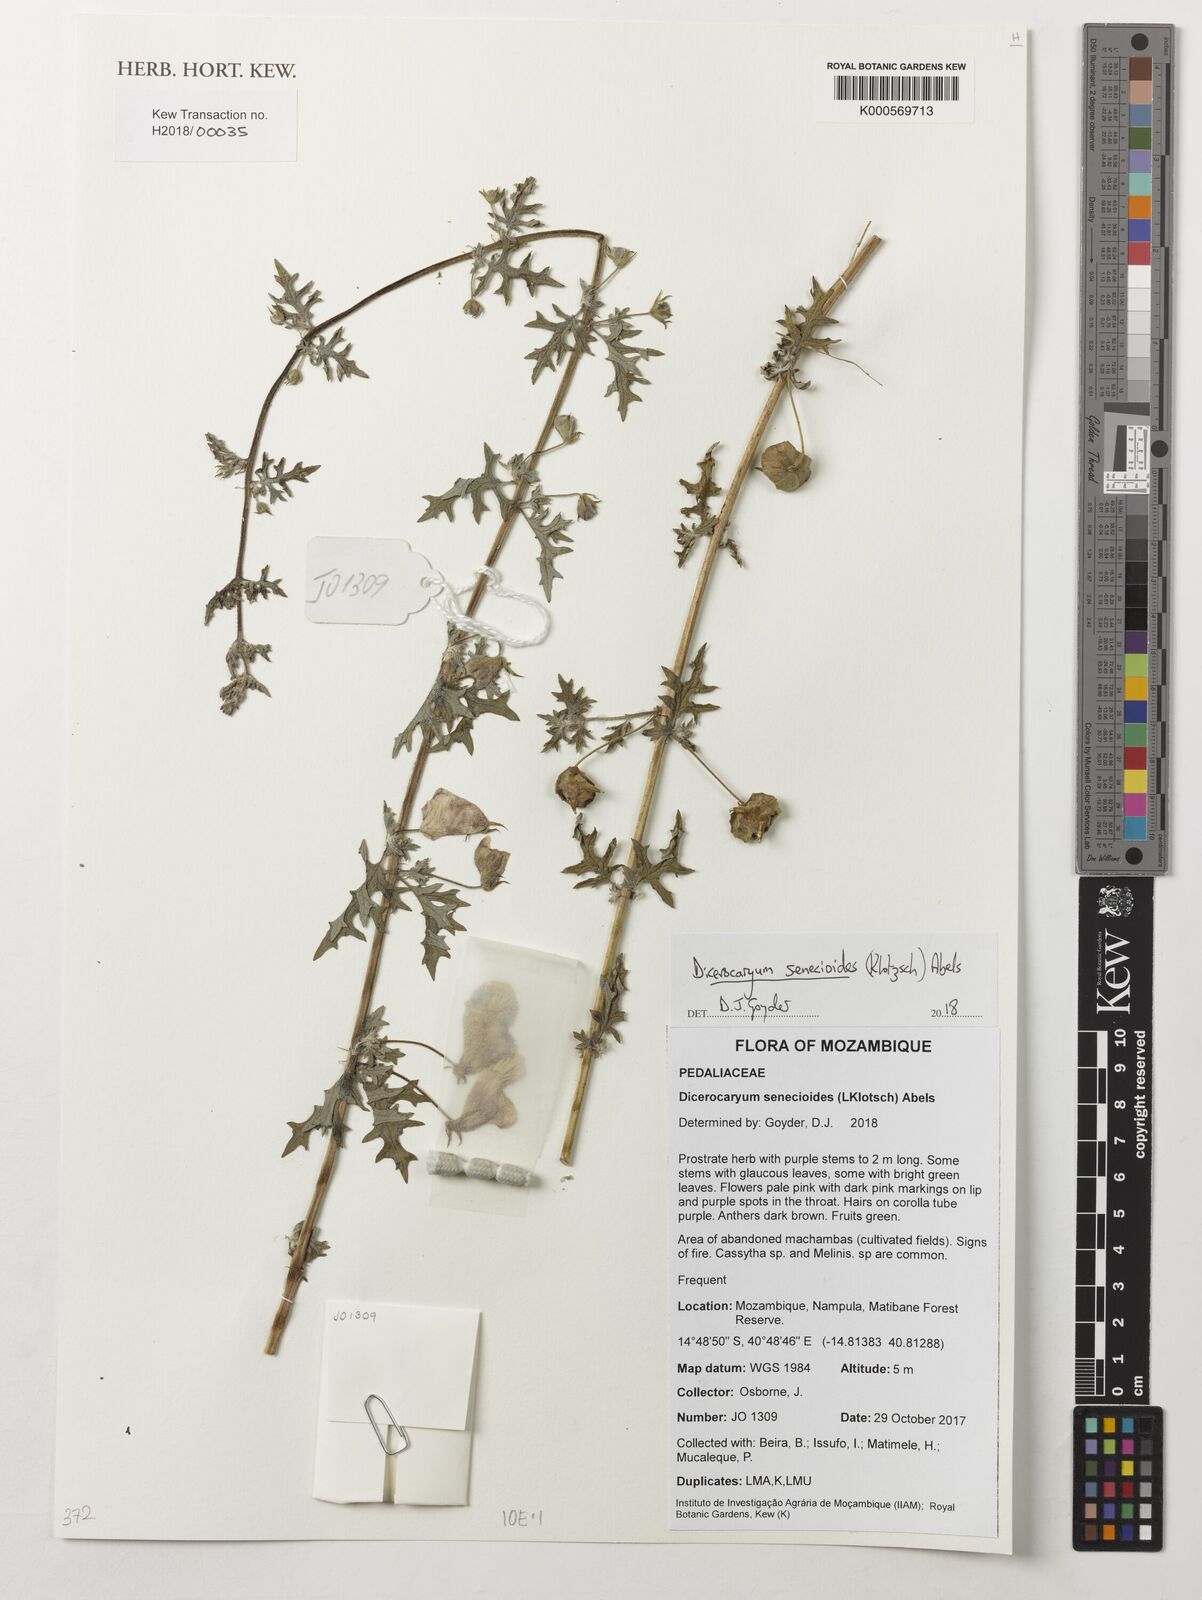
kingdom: Plantae
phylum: Tracheophyta
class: Magnoliopsida
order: Lamiales
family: Pedaliaceae
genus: Dicerocaryum
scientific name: Dicerocaryum senecioides
